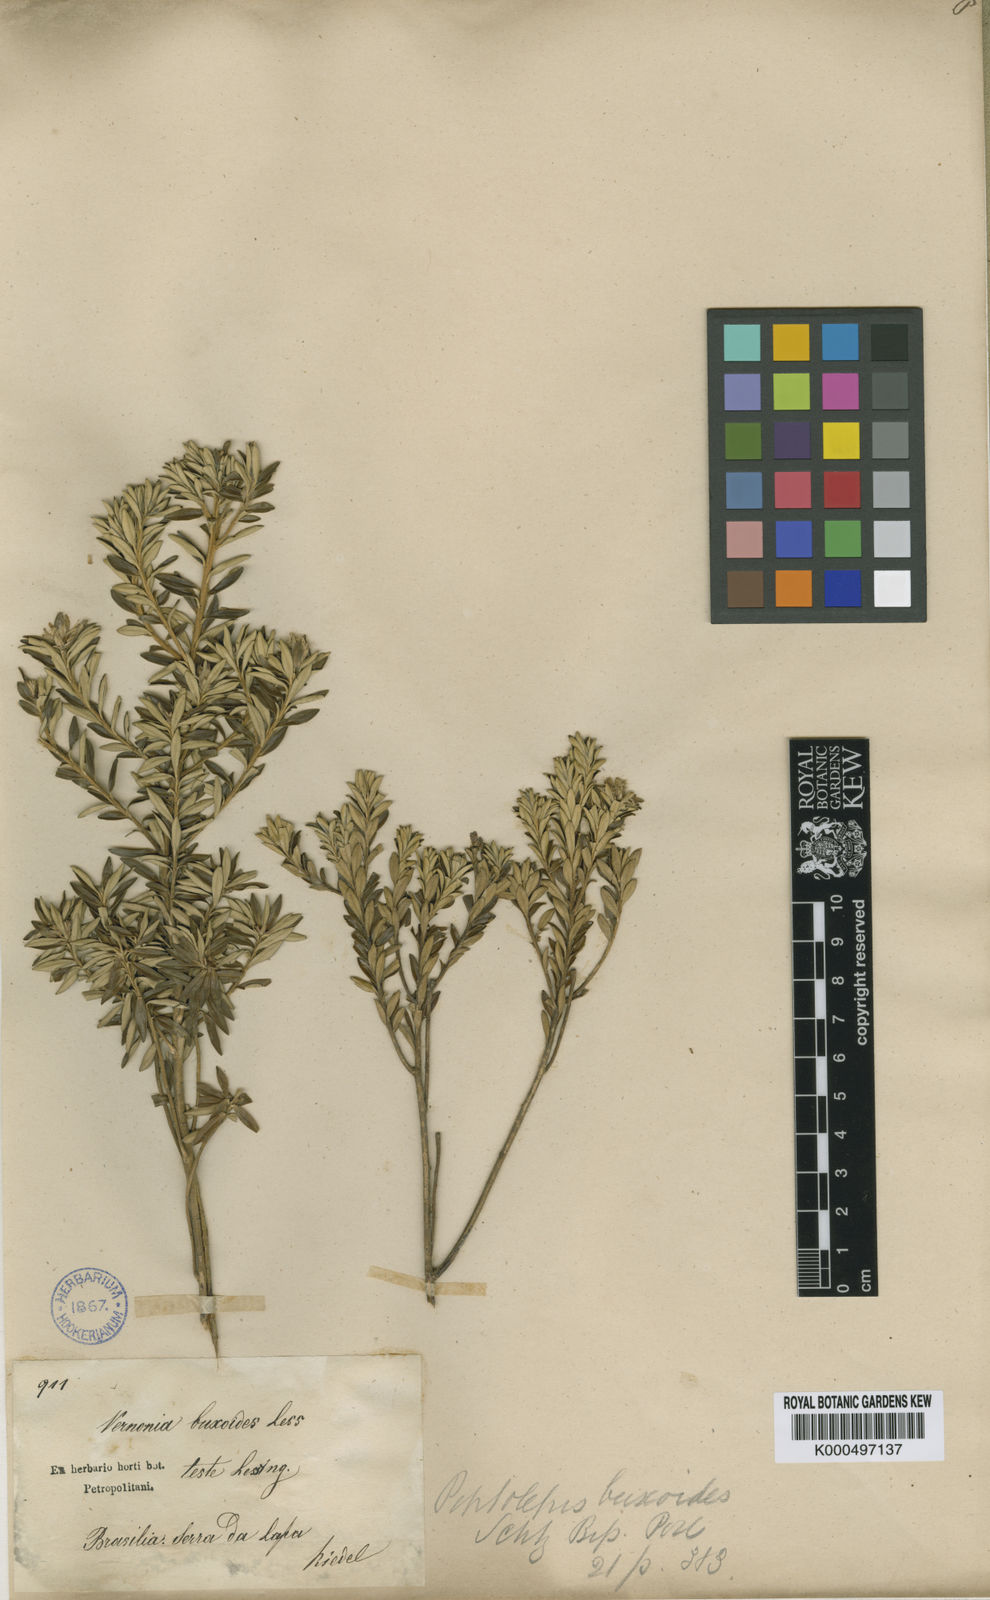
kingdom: Plantae
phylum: Tracheophyta
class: Magnoliopsida
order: Asterales
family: Asteraceae
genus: Piptolepis
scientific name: Piptolepis buxoides
